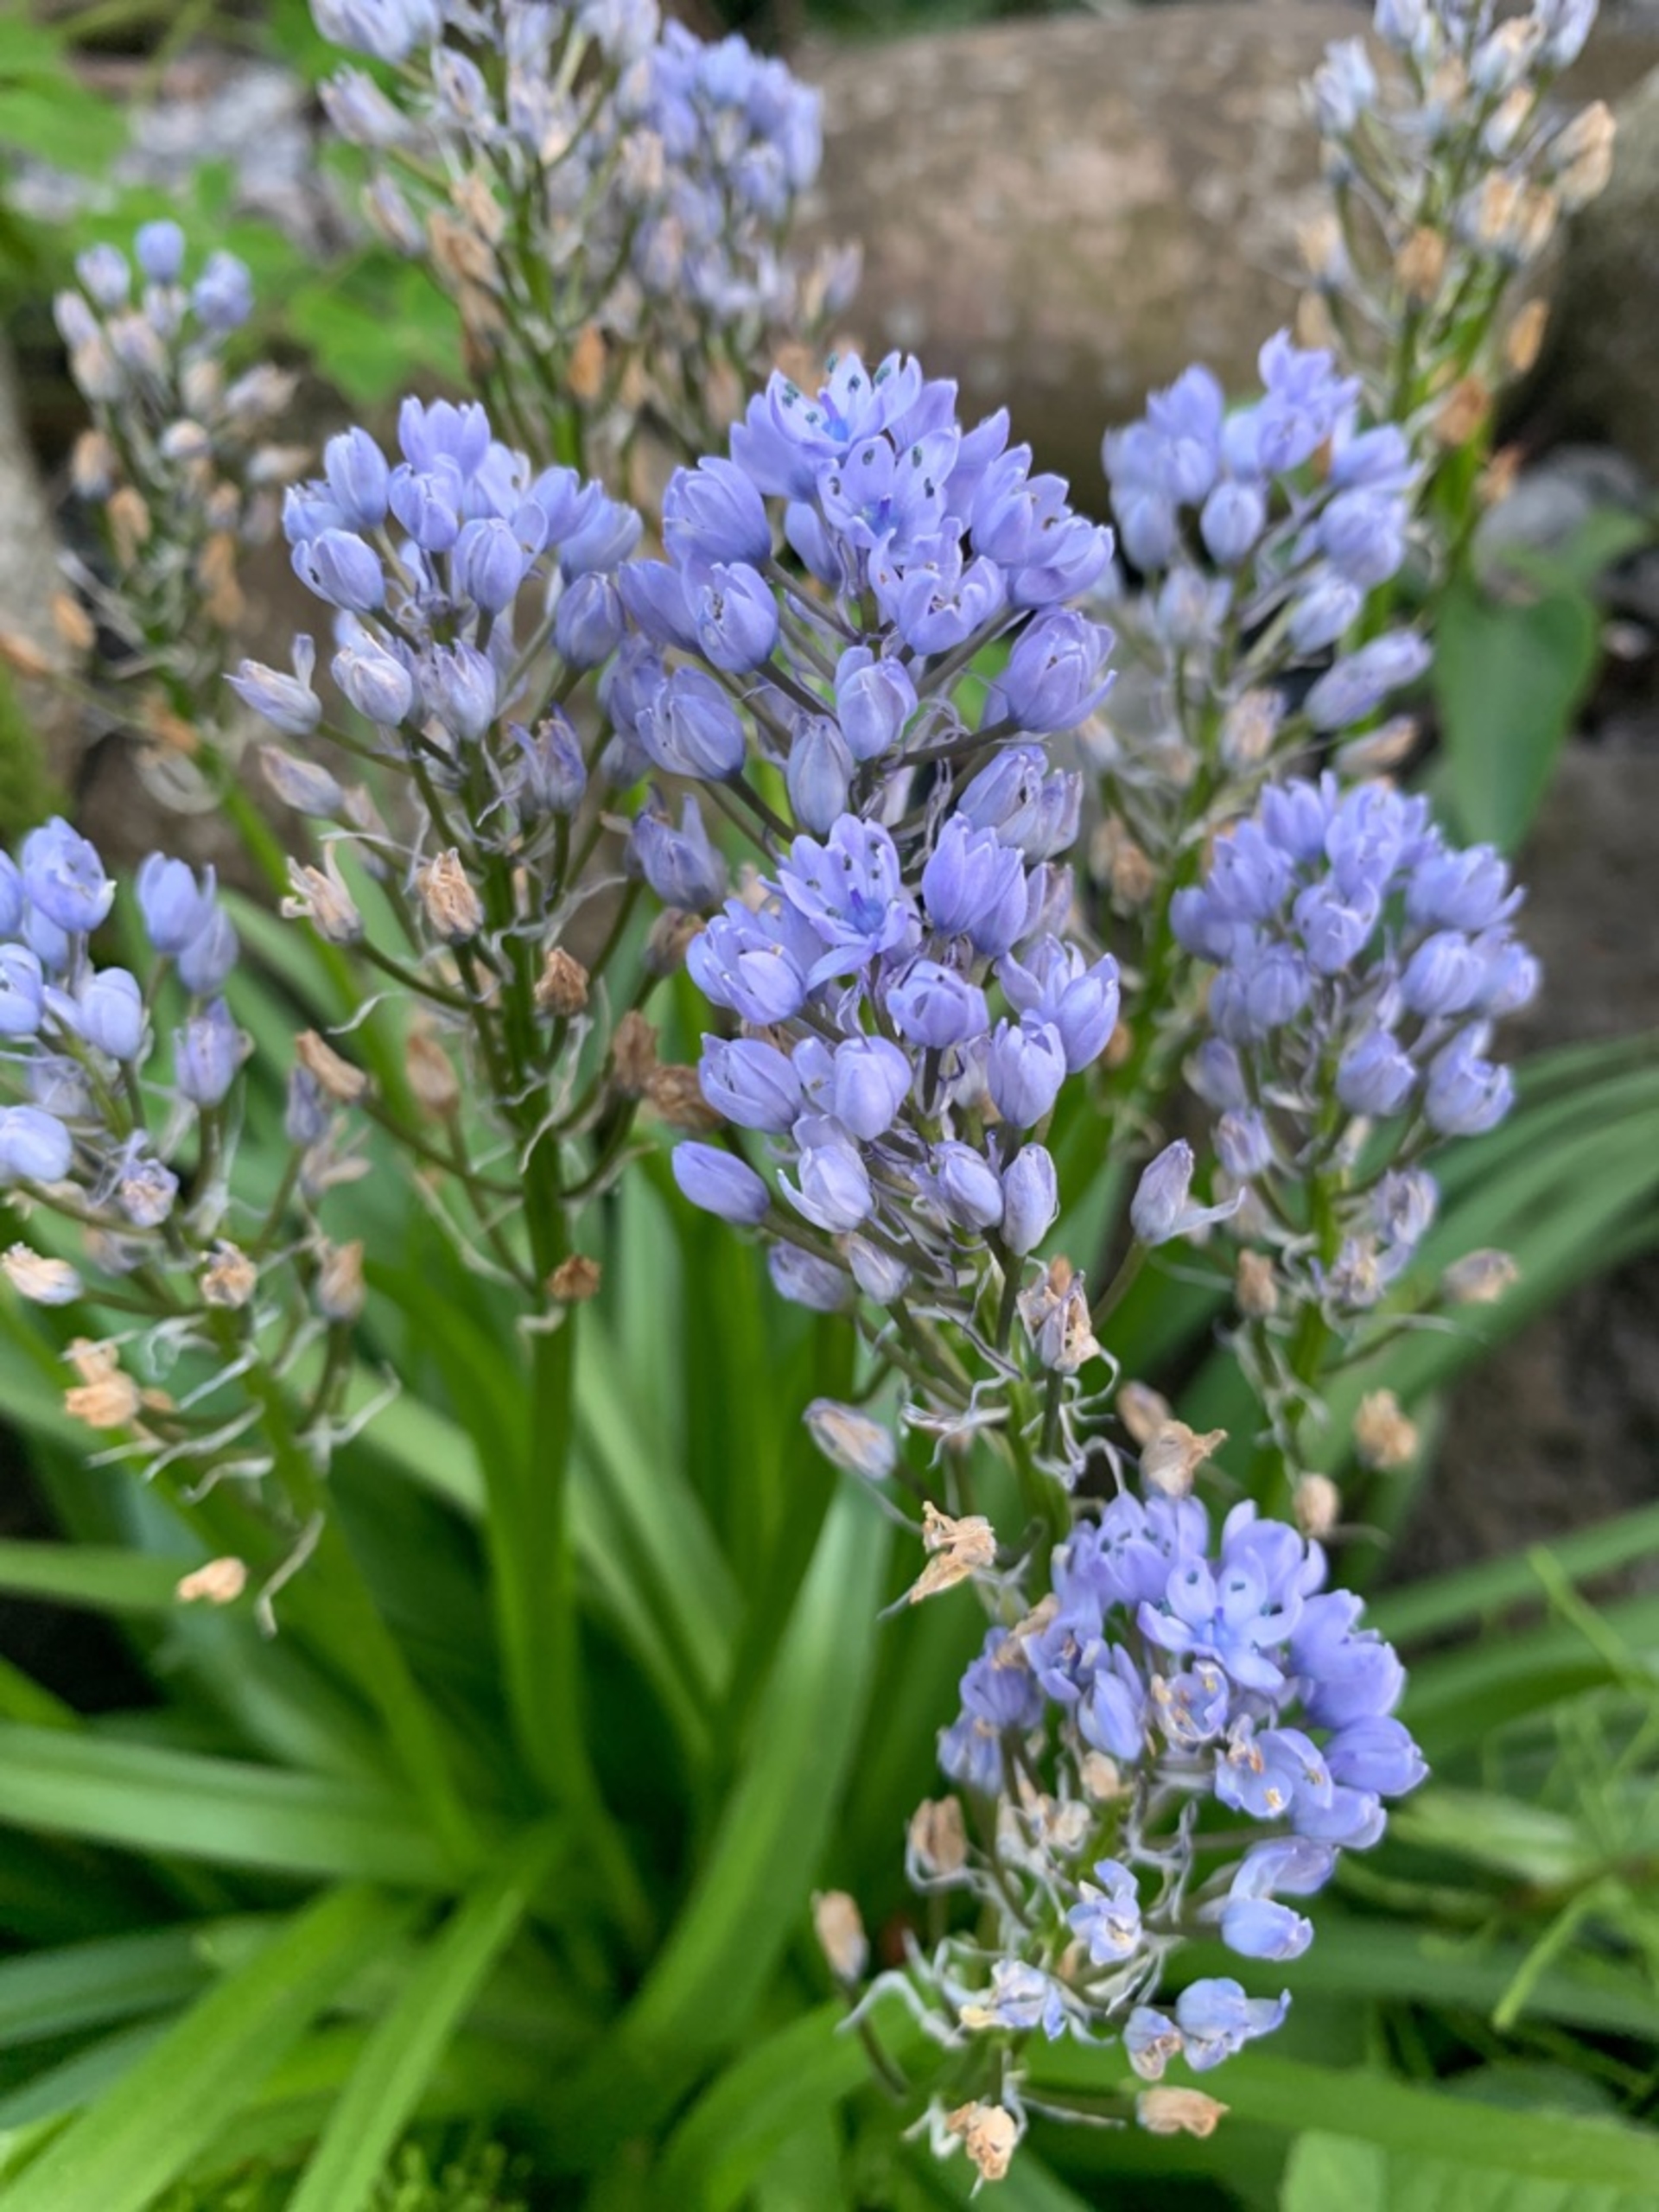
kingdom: Plantae
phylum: Tracheophyta
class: Liliopsida
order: Asparagales
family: Asparagaceae
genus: Hyacinthoides
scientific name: Hyacinthoides italica
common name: Italiensk skilla
